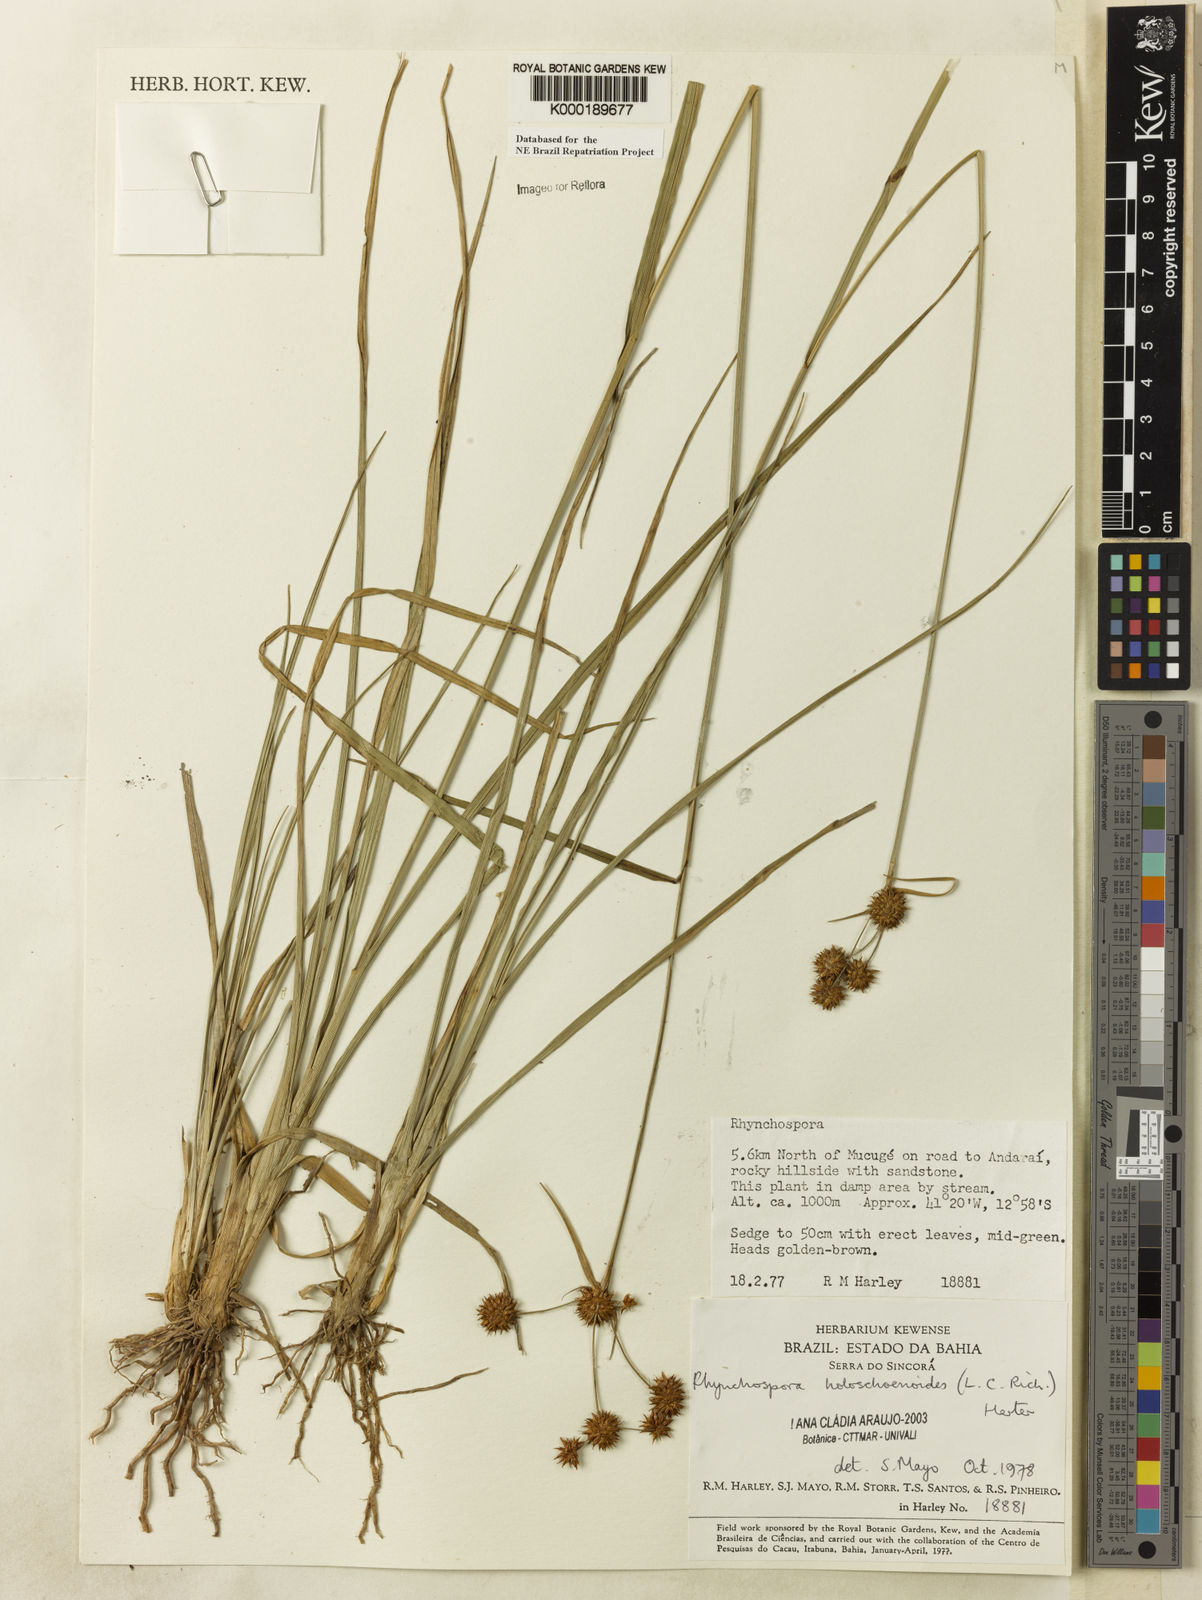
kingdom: Plantae
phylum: Tracheophyta
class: Liliopsida
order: Poales
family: Cyperaceae
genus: Rhynchospora
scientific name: Rhynchospora holoschoenoides
